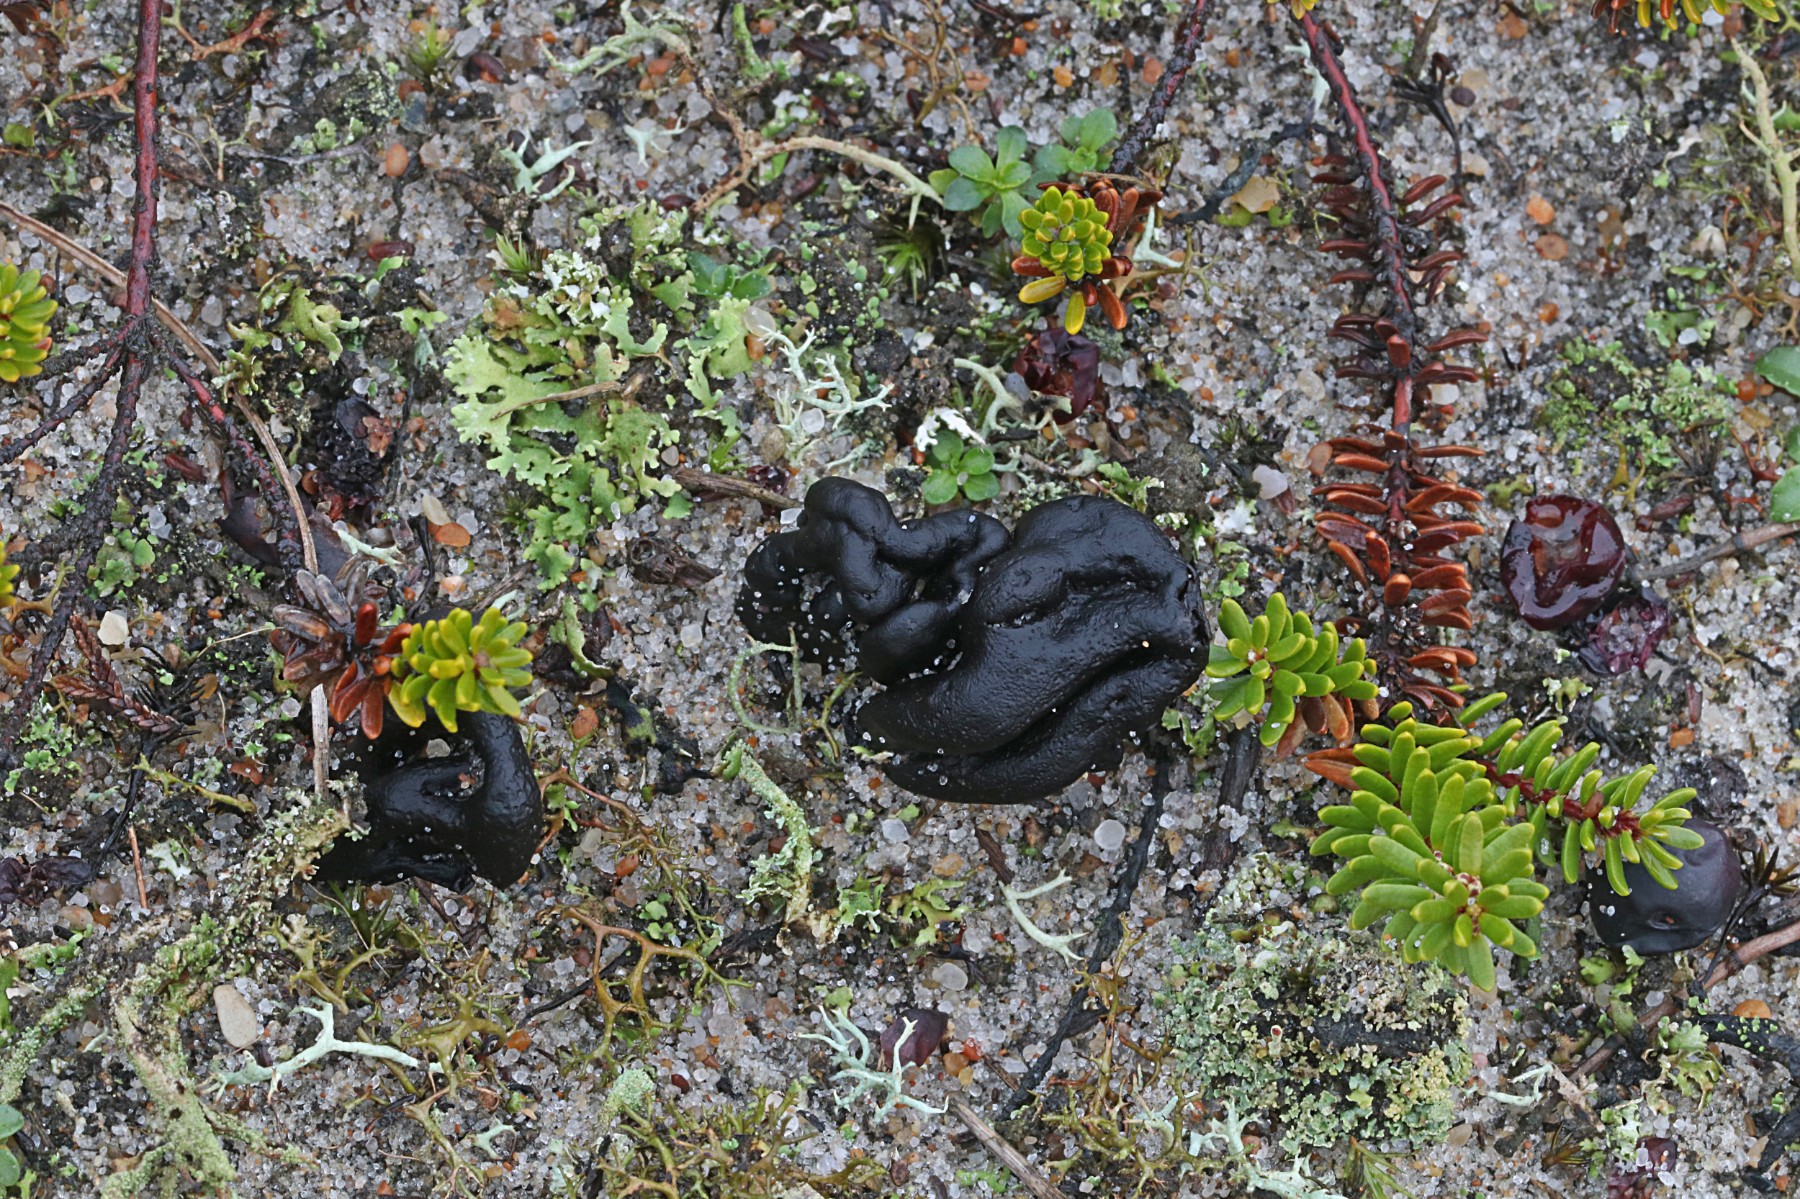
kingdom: Fungi
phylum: Ascomycota
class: Geoglossomycetes
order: Geoglossales
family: Geoglossaceae
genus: Sabuloglossum
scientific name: Sabuloglossum arenarium
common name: klit-jordtunge
